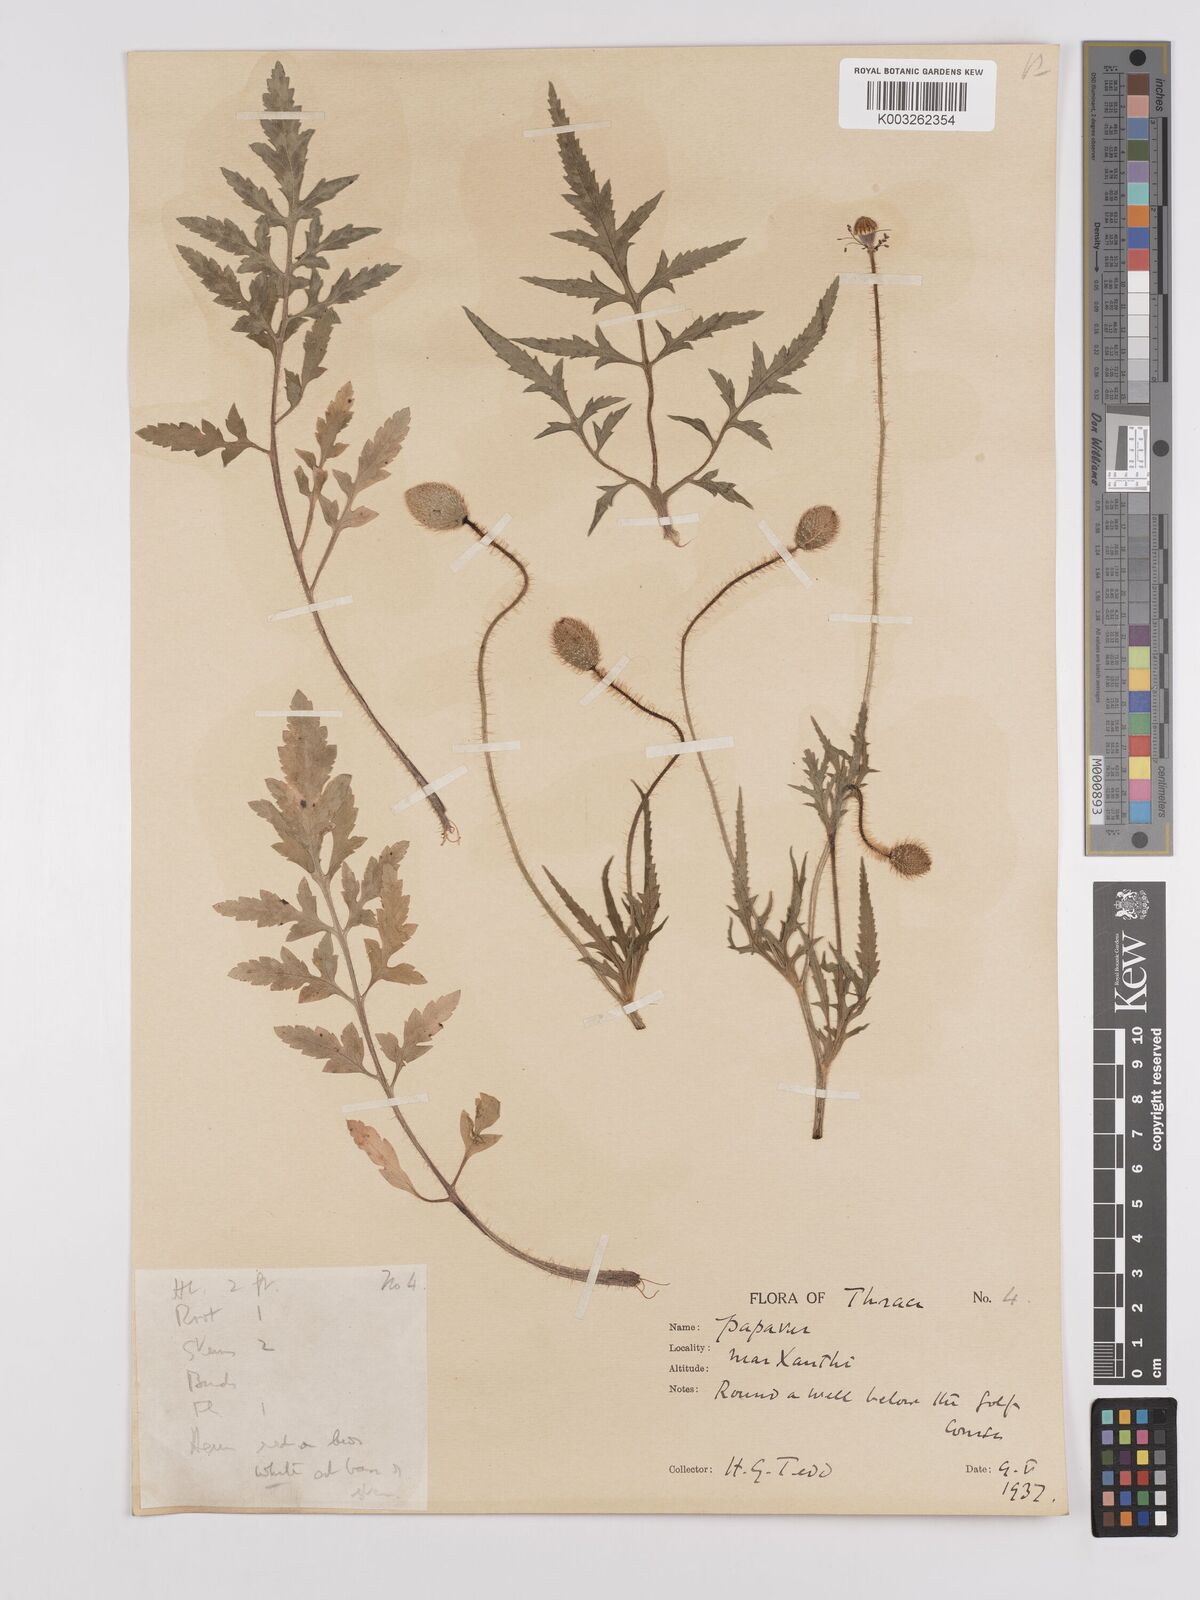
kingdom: Plantae
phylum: Tracheophyta
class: Magnoliopsida
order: Ranunculales
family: Papaveraceae
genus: Papaver
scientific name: Papaver rhoeas
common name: Corn poppy
